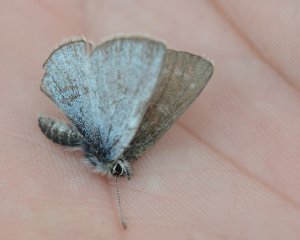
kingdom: Animalia
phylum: Arthropoda
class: Insecta
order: Lepidoptera
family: Lycaenidae
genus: Glaucopsyche
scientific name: Glaucopsyche lygdamus
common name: Silvery Blue
